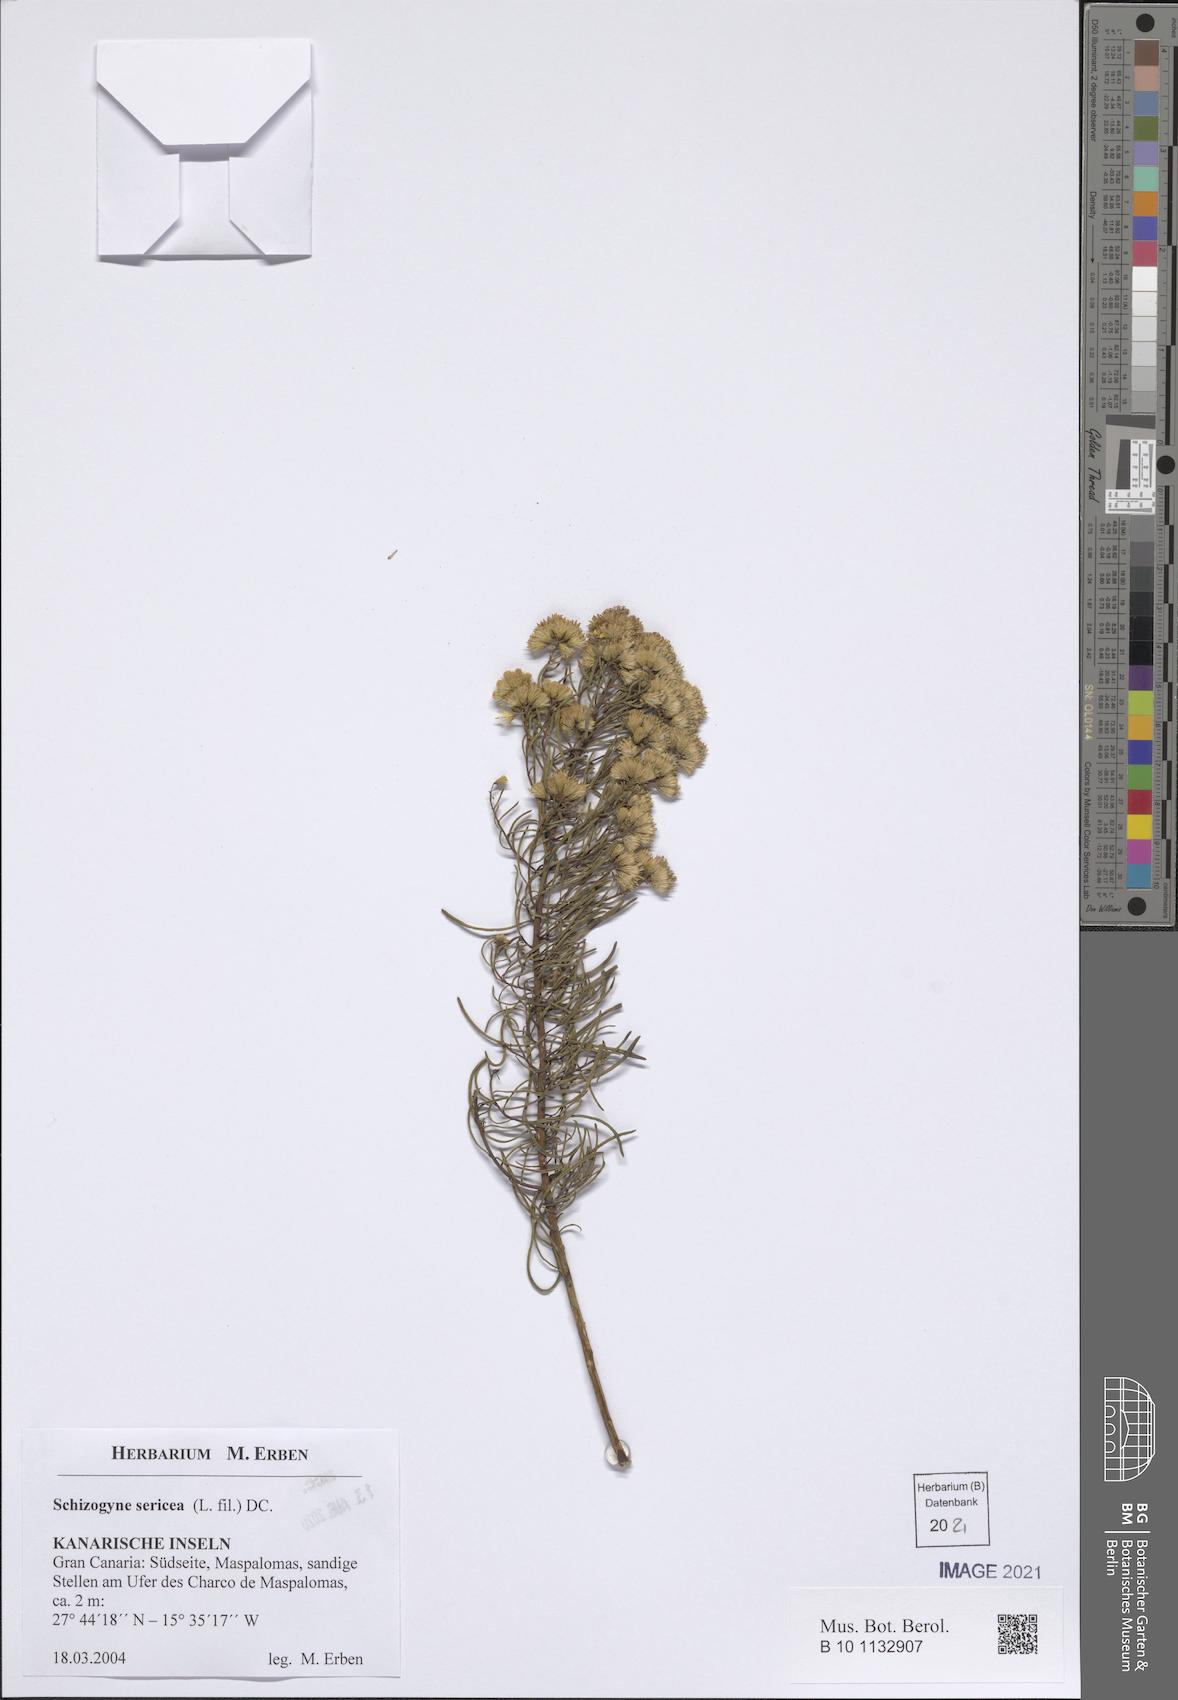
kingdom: Plantae
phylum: Tracheophyta
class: Magnoliopsida
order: Asterales
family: Asteraceae
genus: Schizogyne
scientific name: Schizogyne sericea
